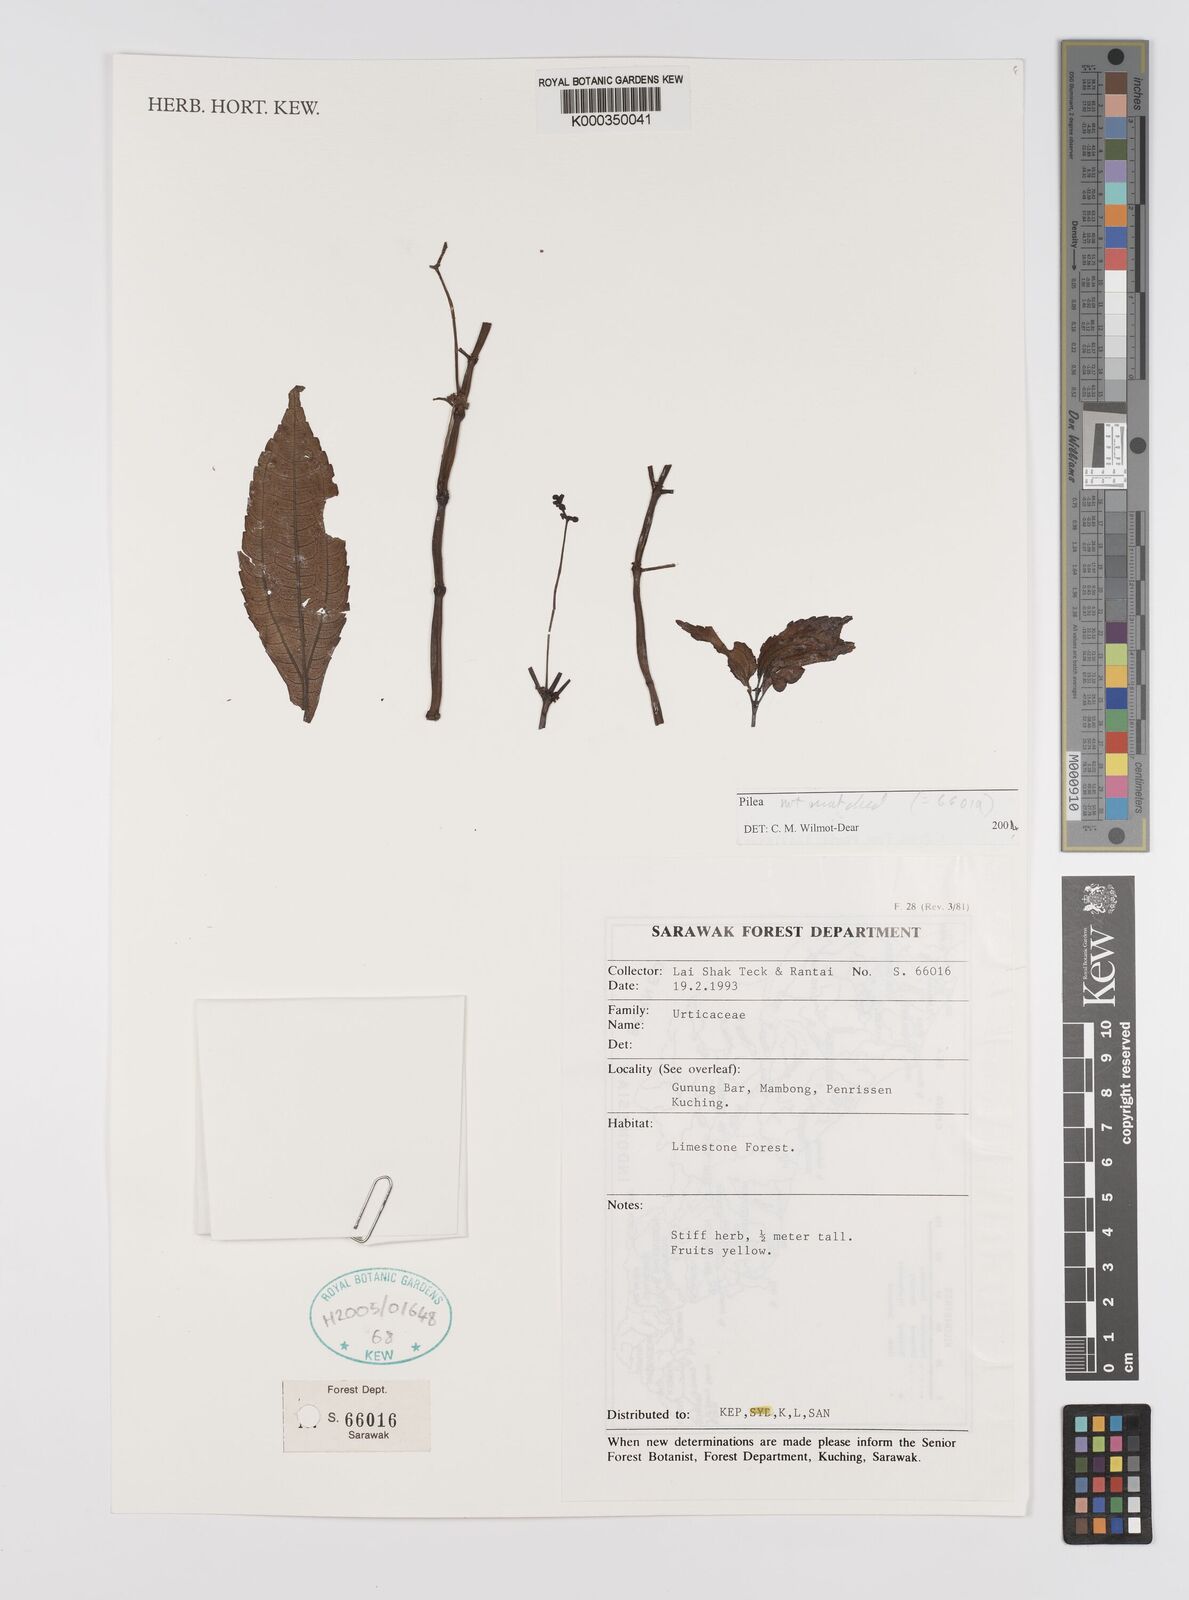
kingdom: Plantae
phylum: Tracheophyta
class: Magnoliopsida
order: Rosales
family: Urticaceae
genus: Pilea
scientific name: Pilea
